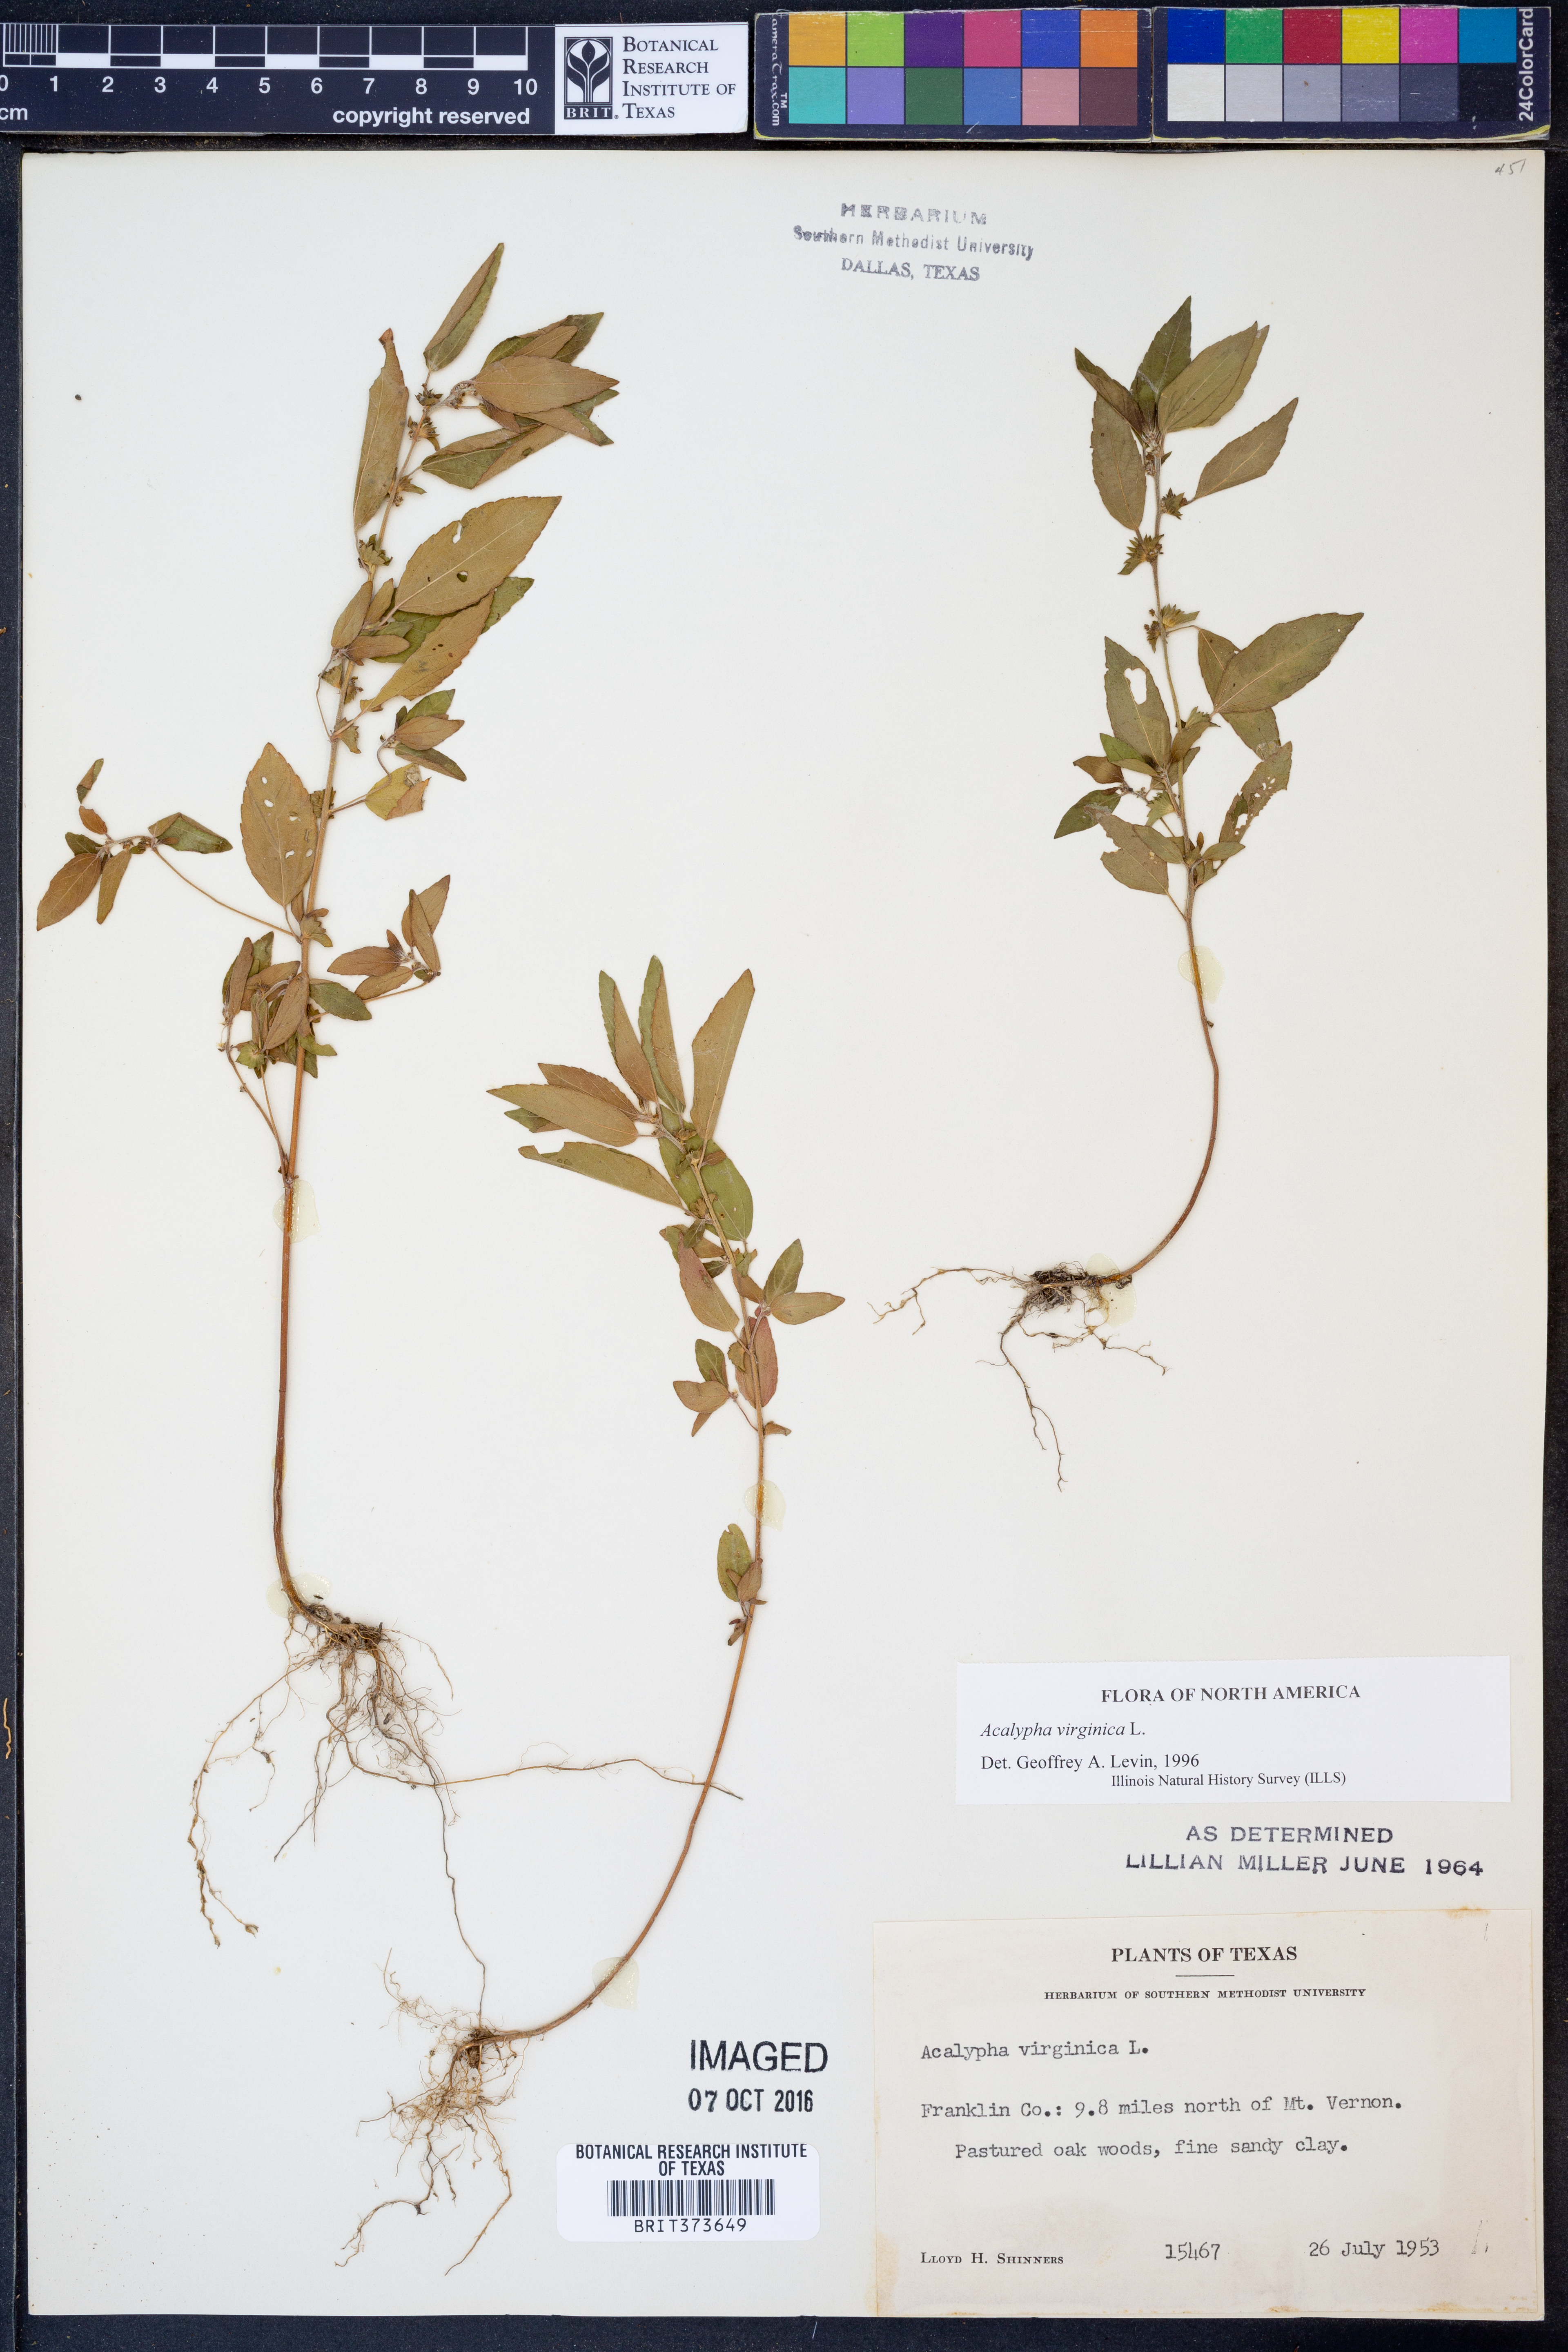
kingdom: Plantae
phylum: Tracheophyta
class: Magnoliopsida
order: Malpighiales
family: Euphorbiaceae
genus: Acalypha
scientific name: Acalypha virginica
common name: Virginia copperleaf
